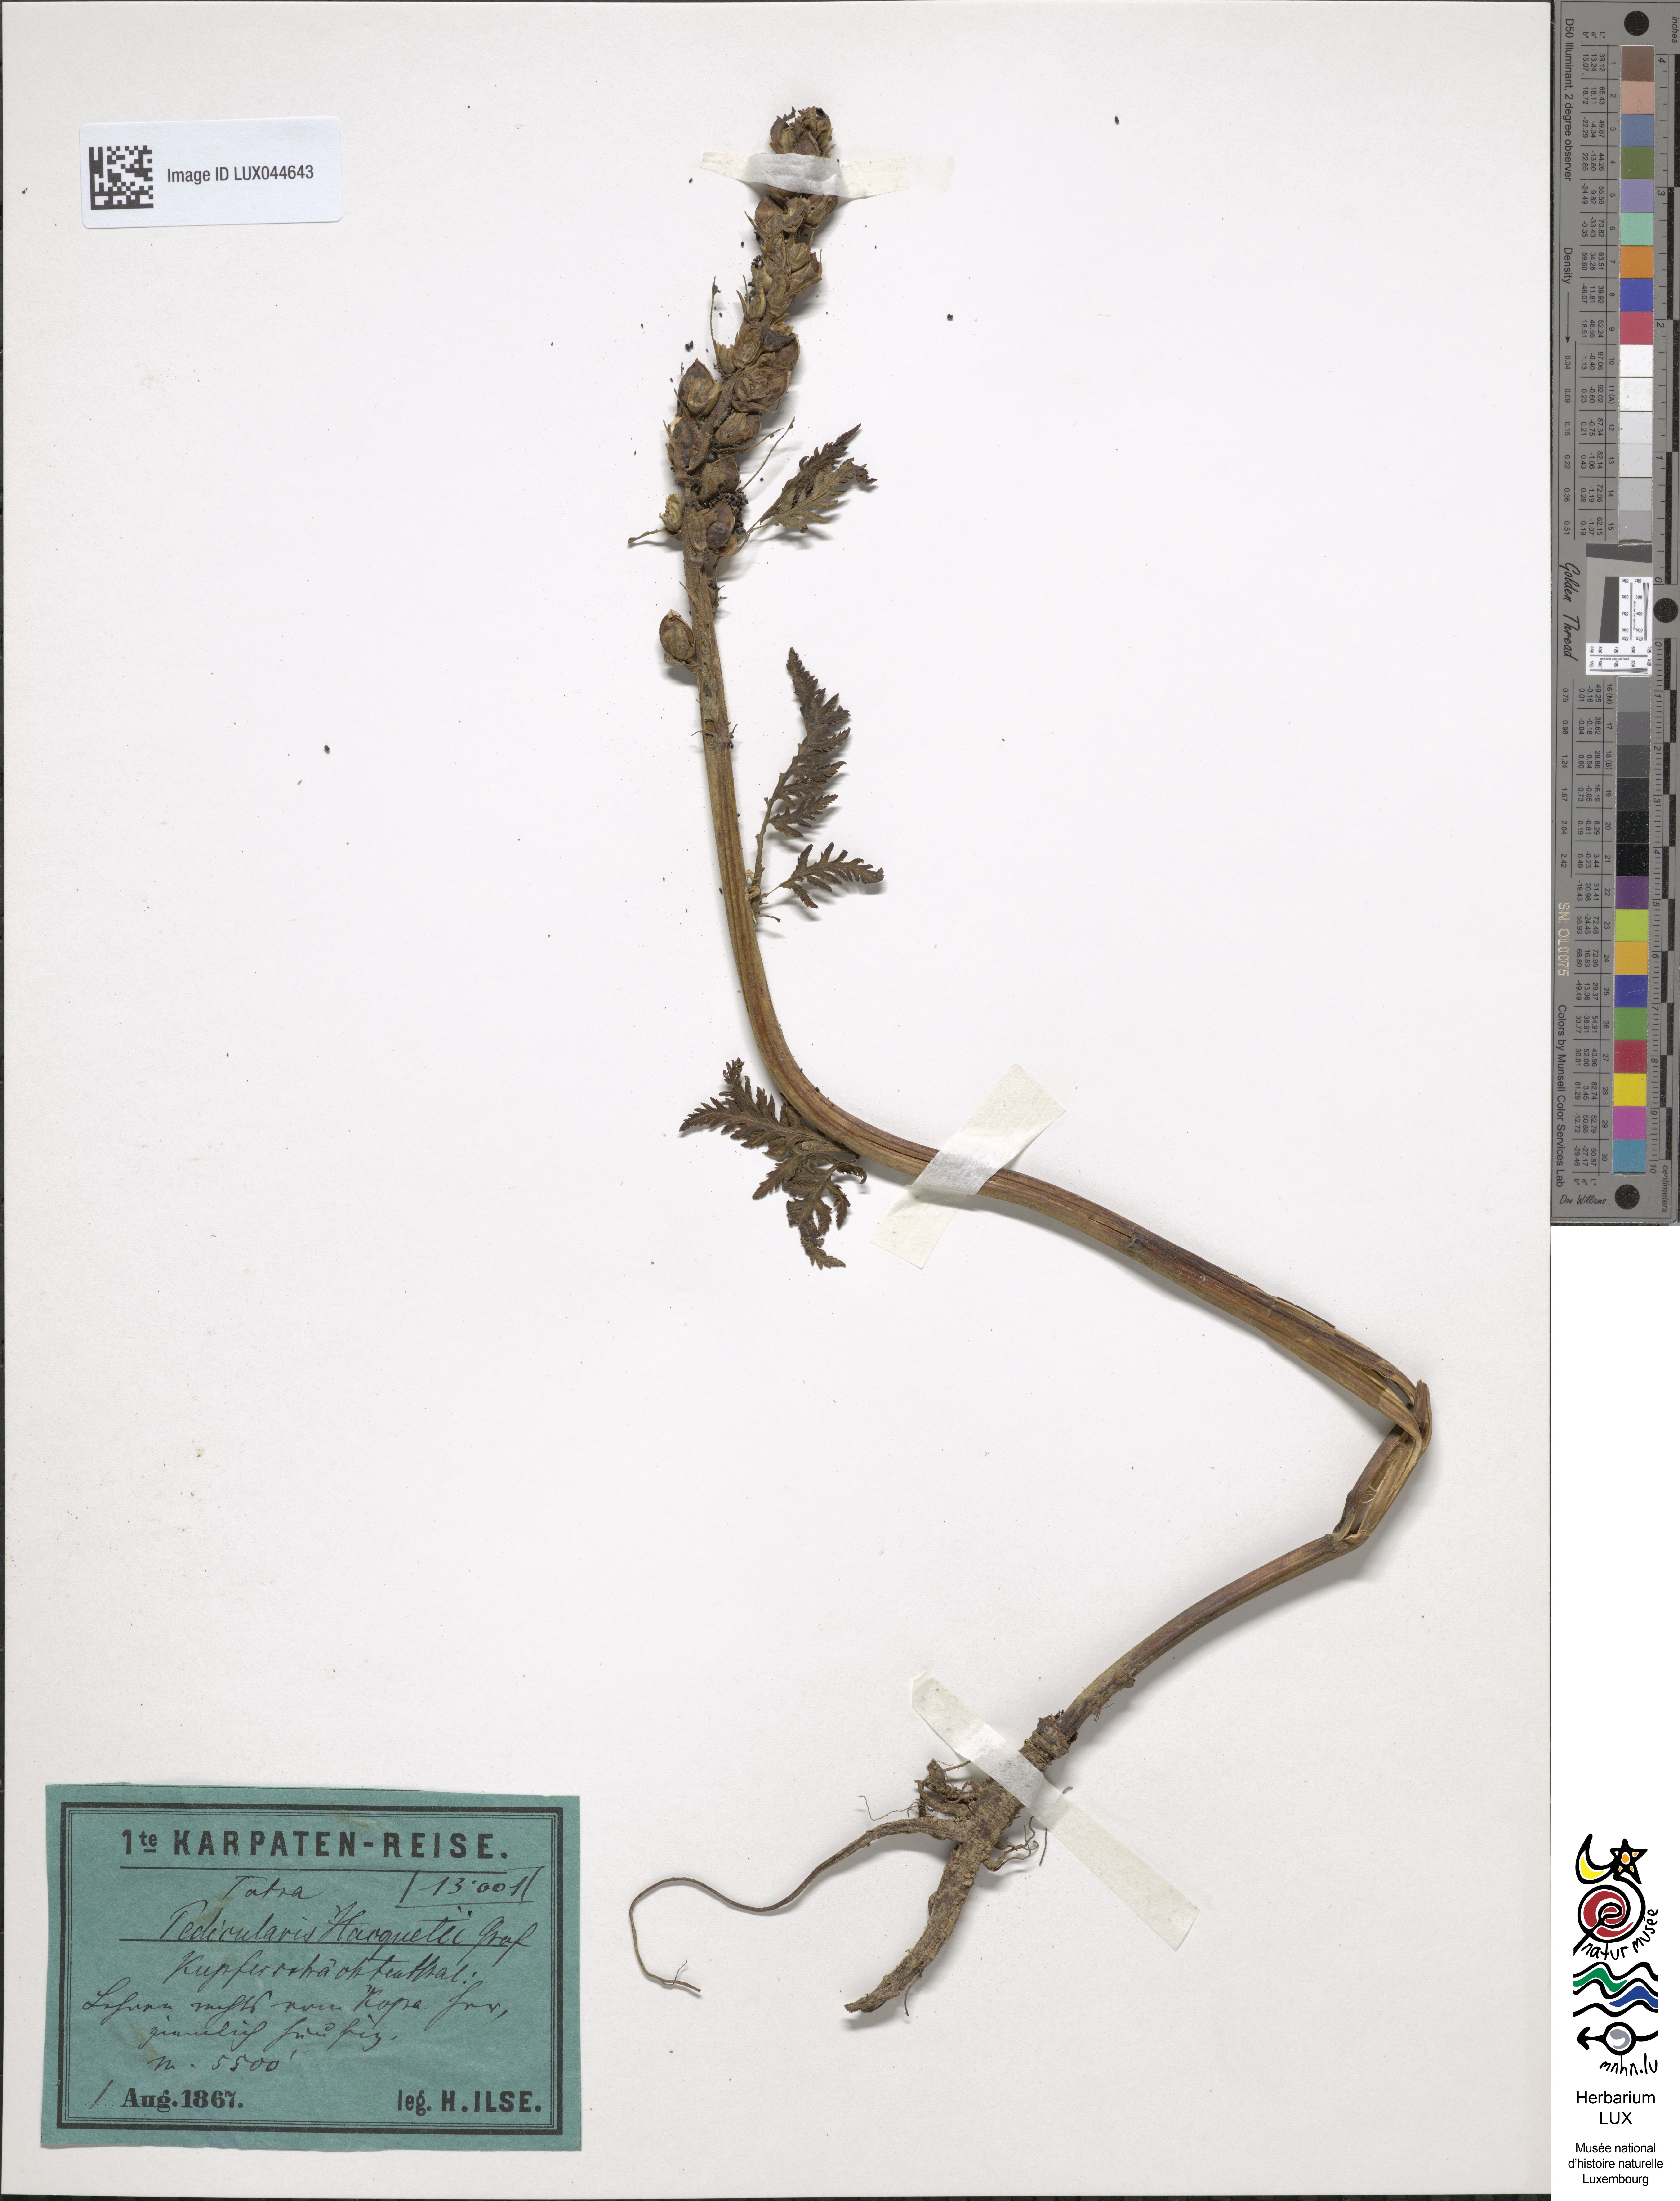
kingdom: Plantae
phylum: Tracheophyta
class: Magnoliopsida
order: Lamiales
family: Orobanchaceae
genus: Pedicularis
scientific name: Pedicularis hacquetii
